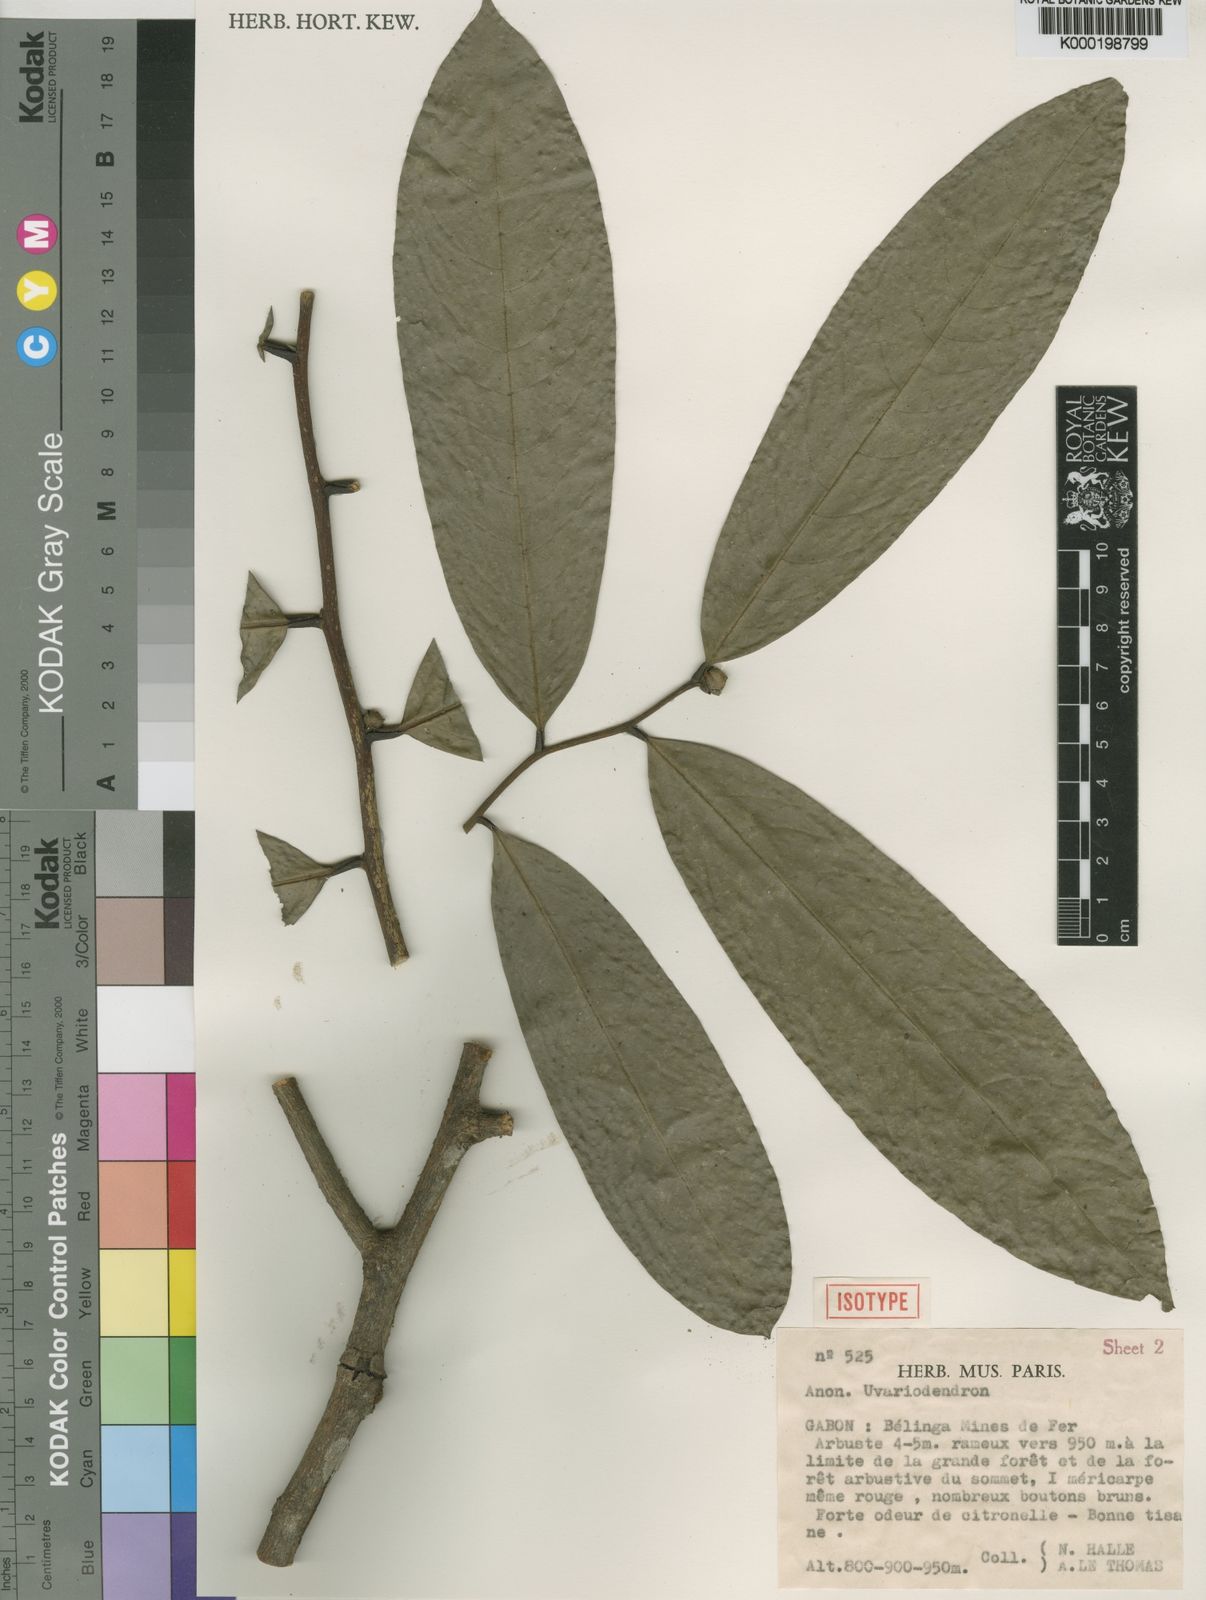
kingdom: Plantae
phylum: Tracheophyta
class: Magnoliopsida
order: Magnoliales
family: Annonaceae
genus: Uvariodendron
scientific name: Uvariodendron molundense
